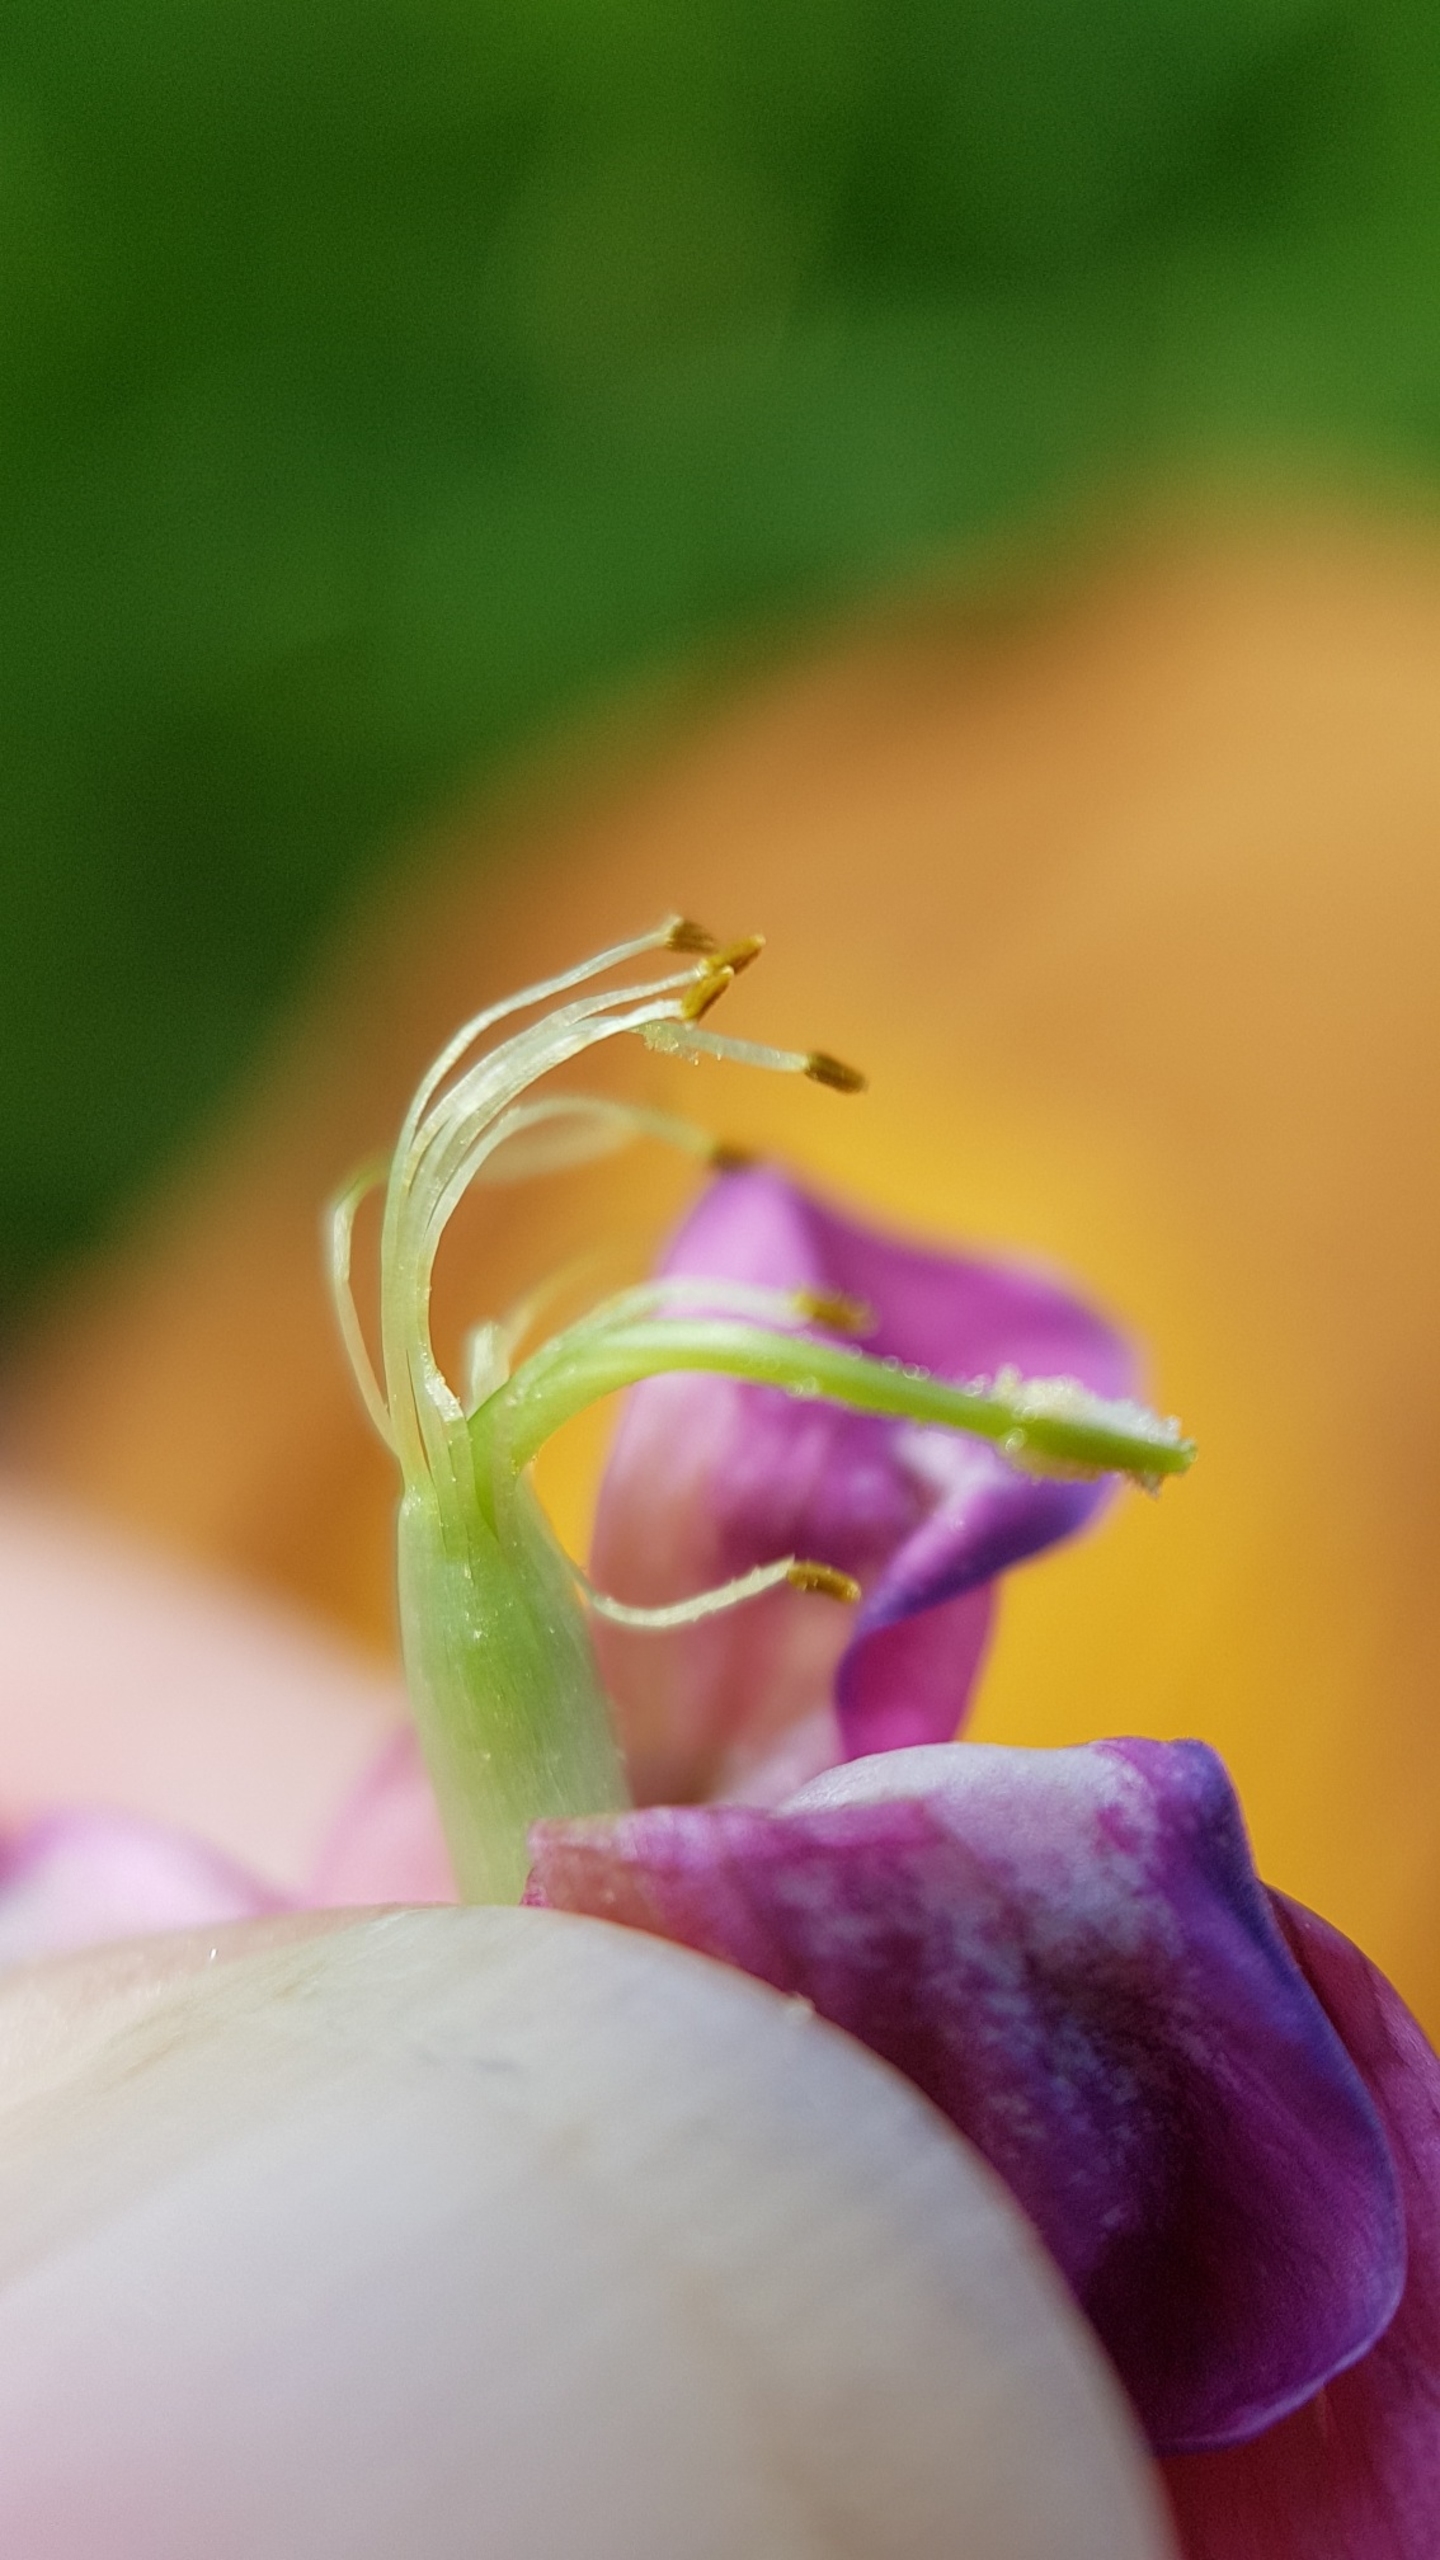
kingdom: Plantae
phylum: Tracheophyta
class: Magnoliopsida
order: Fabales
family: Fabaceae
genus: Lathyrus
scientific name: Lathyrus sylvestris
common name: Skov-fladbælg
